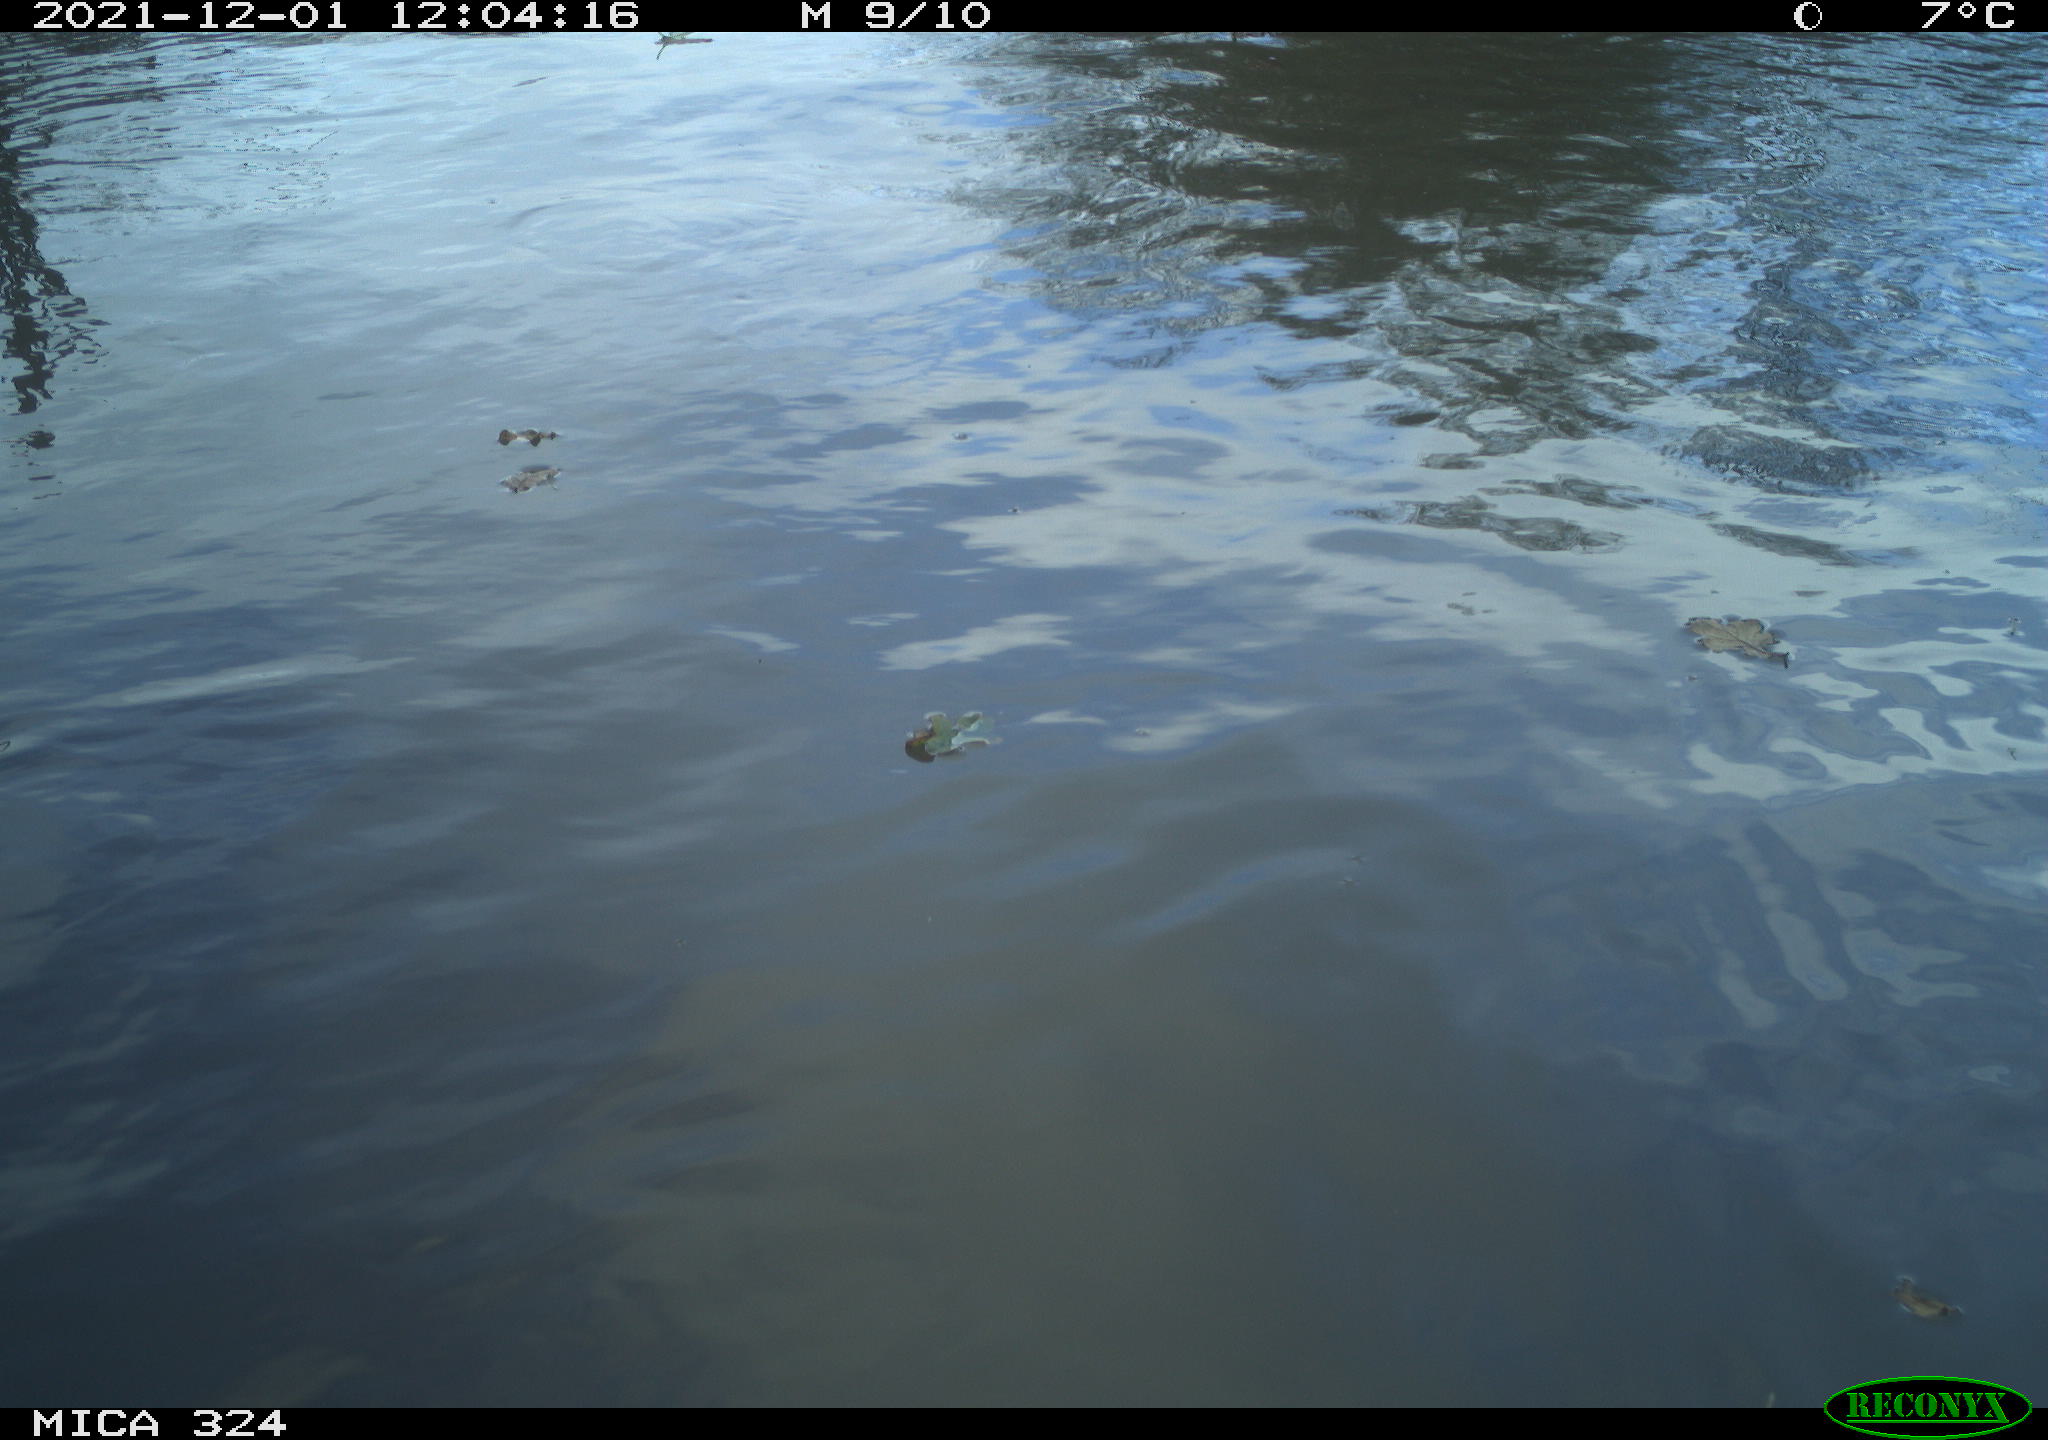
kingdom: Animalia
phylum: Chordata
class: Mammalia
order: Rodentia
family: Cricetidae
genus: Ondatra
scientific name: Ondatra zibethicus
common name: Muskrat
